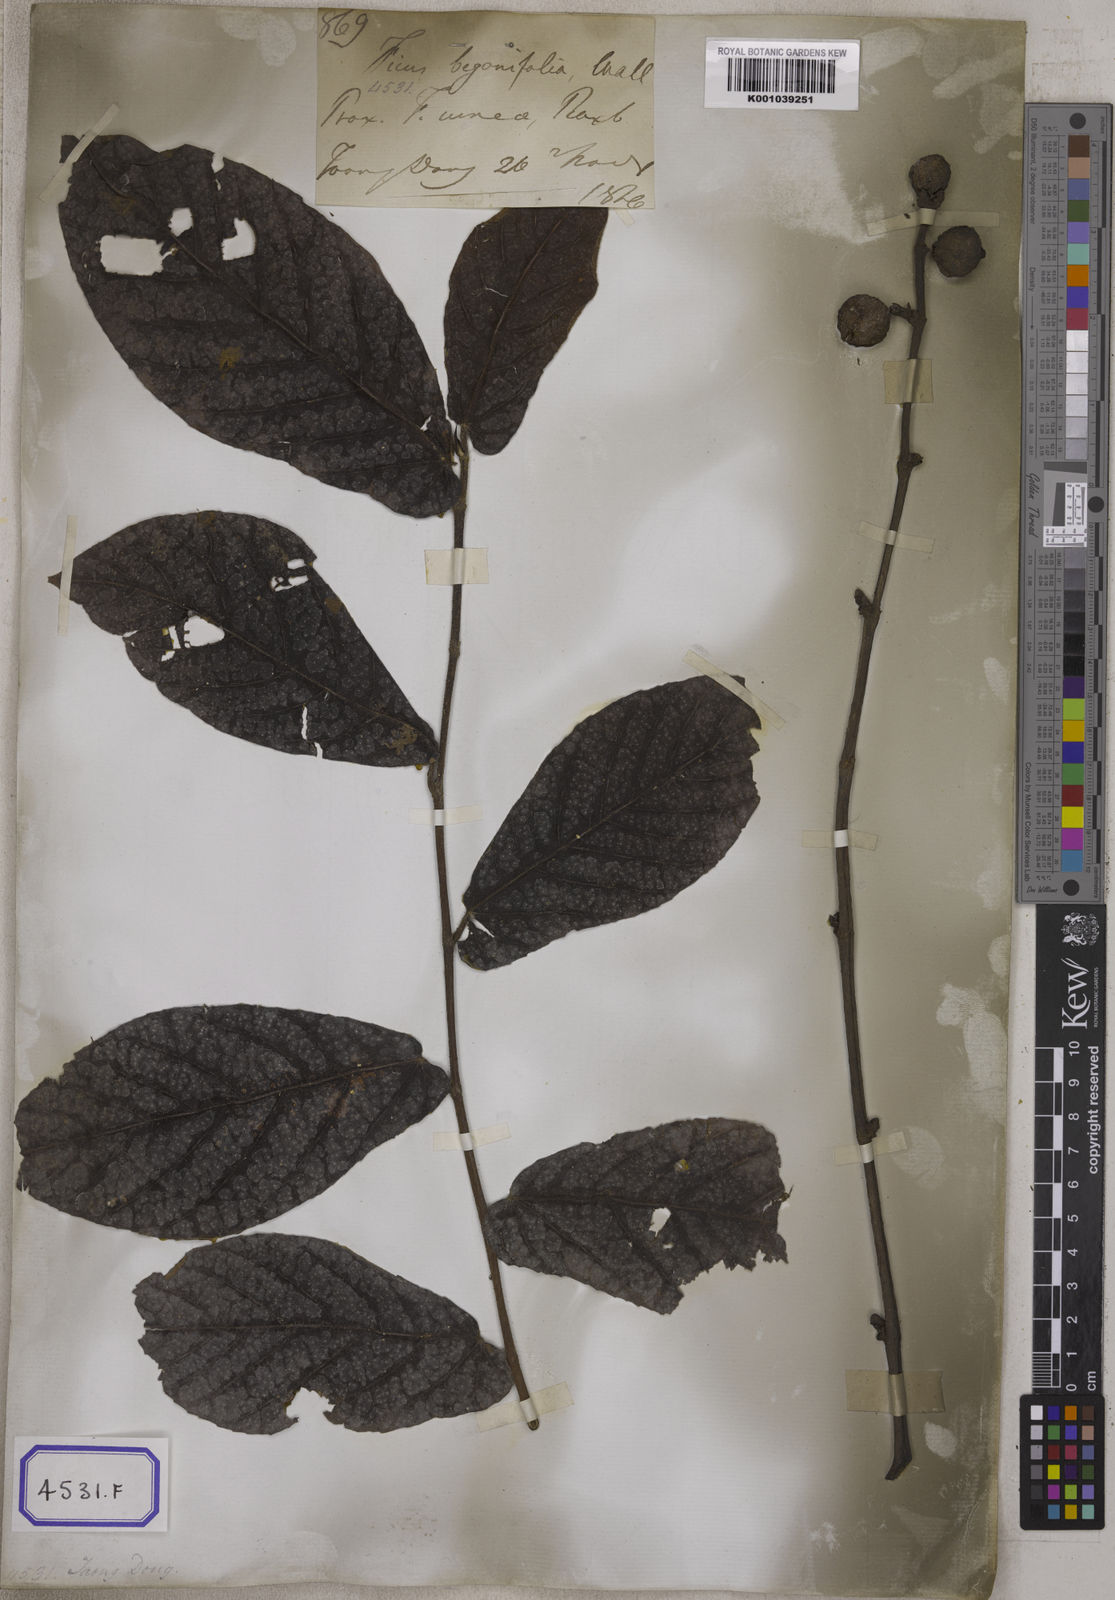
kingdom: Plantae
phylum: Tracheophyta
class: Magnoliopsida
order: Rosales
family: Moraceae
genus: Ficus
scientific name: Ficus semicordata
